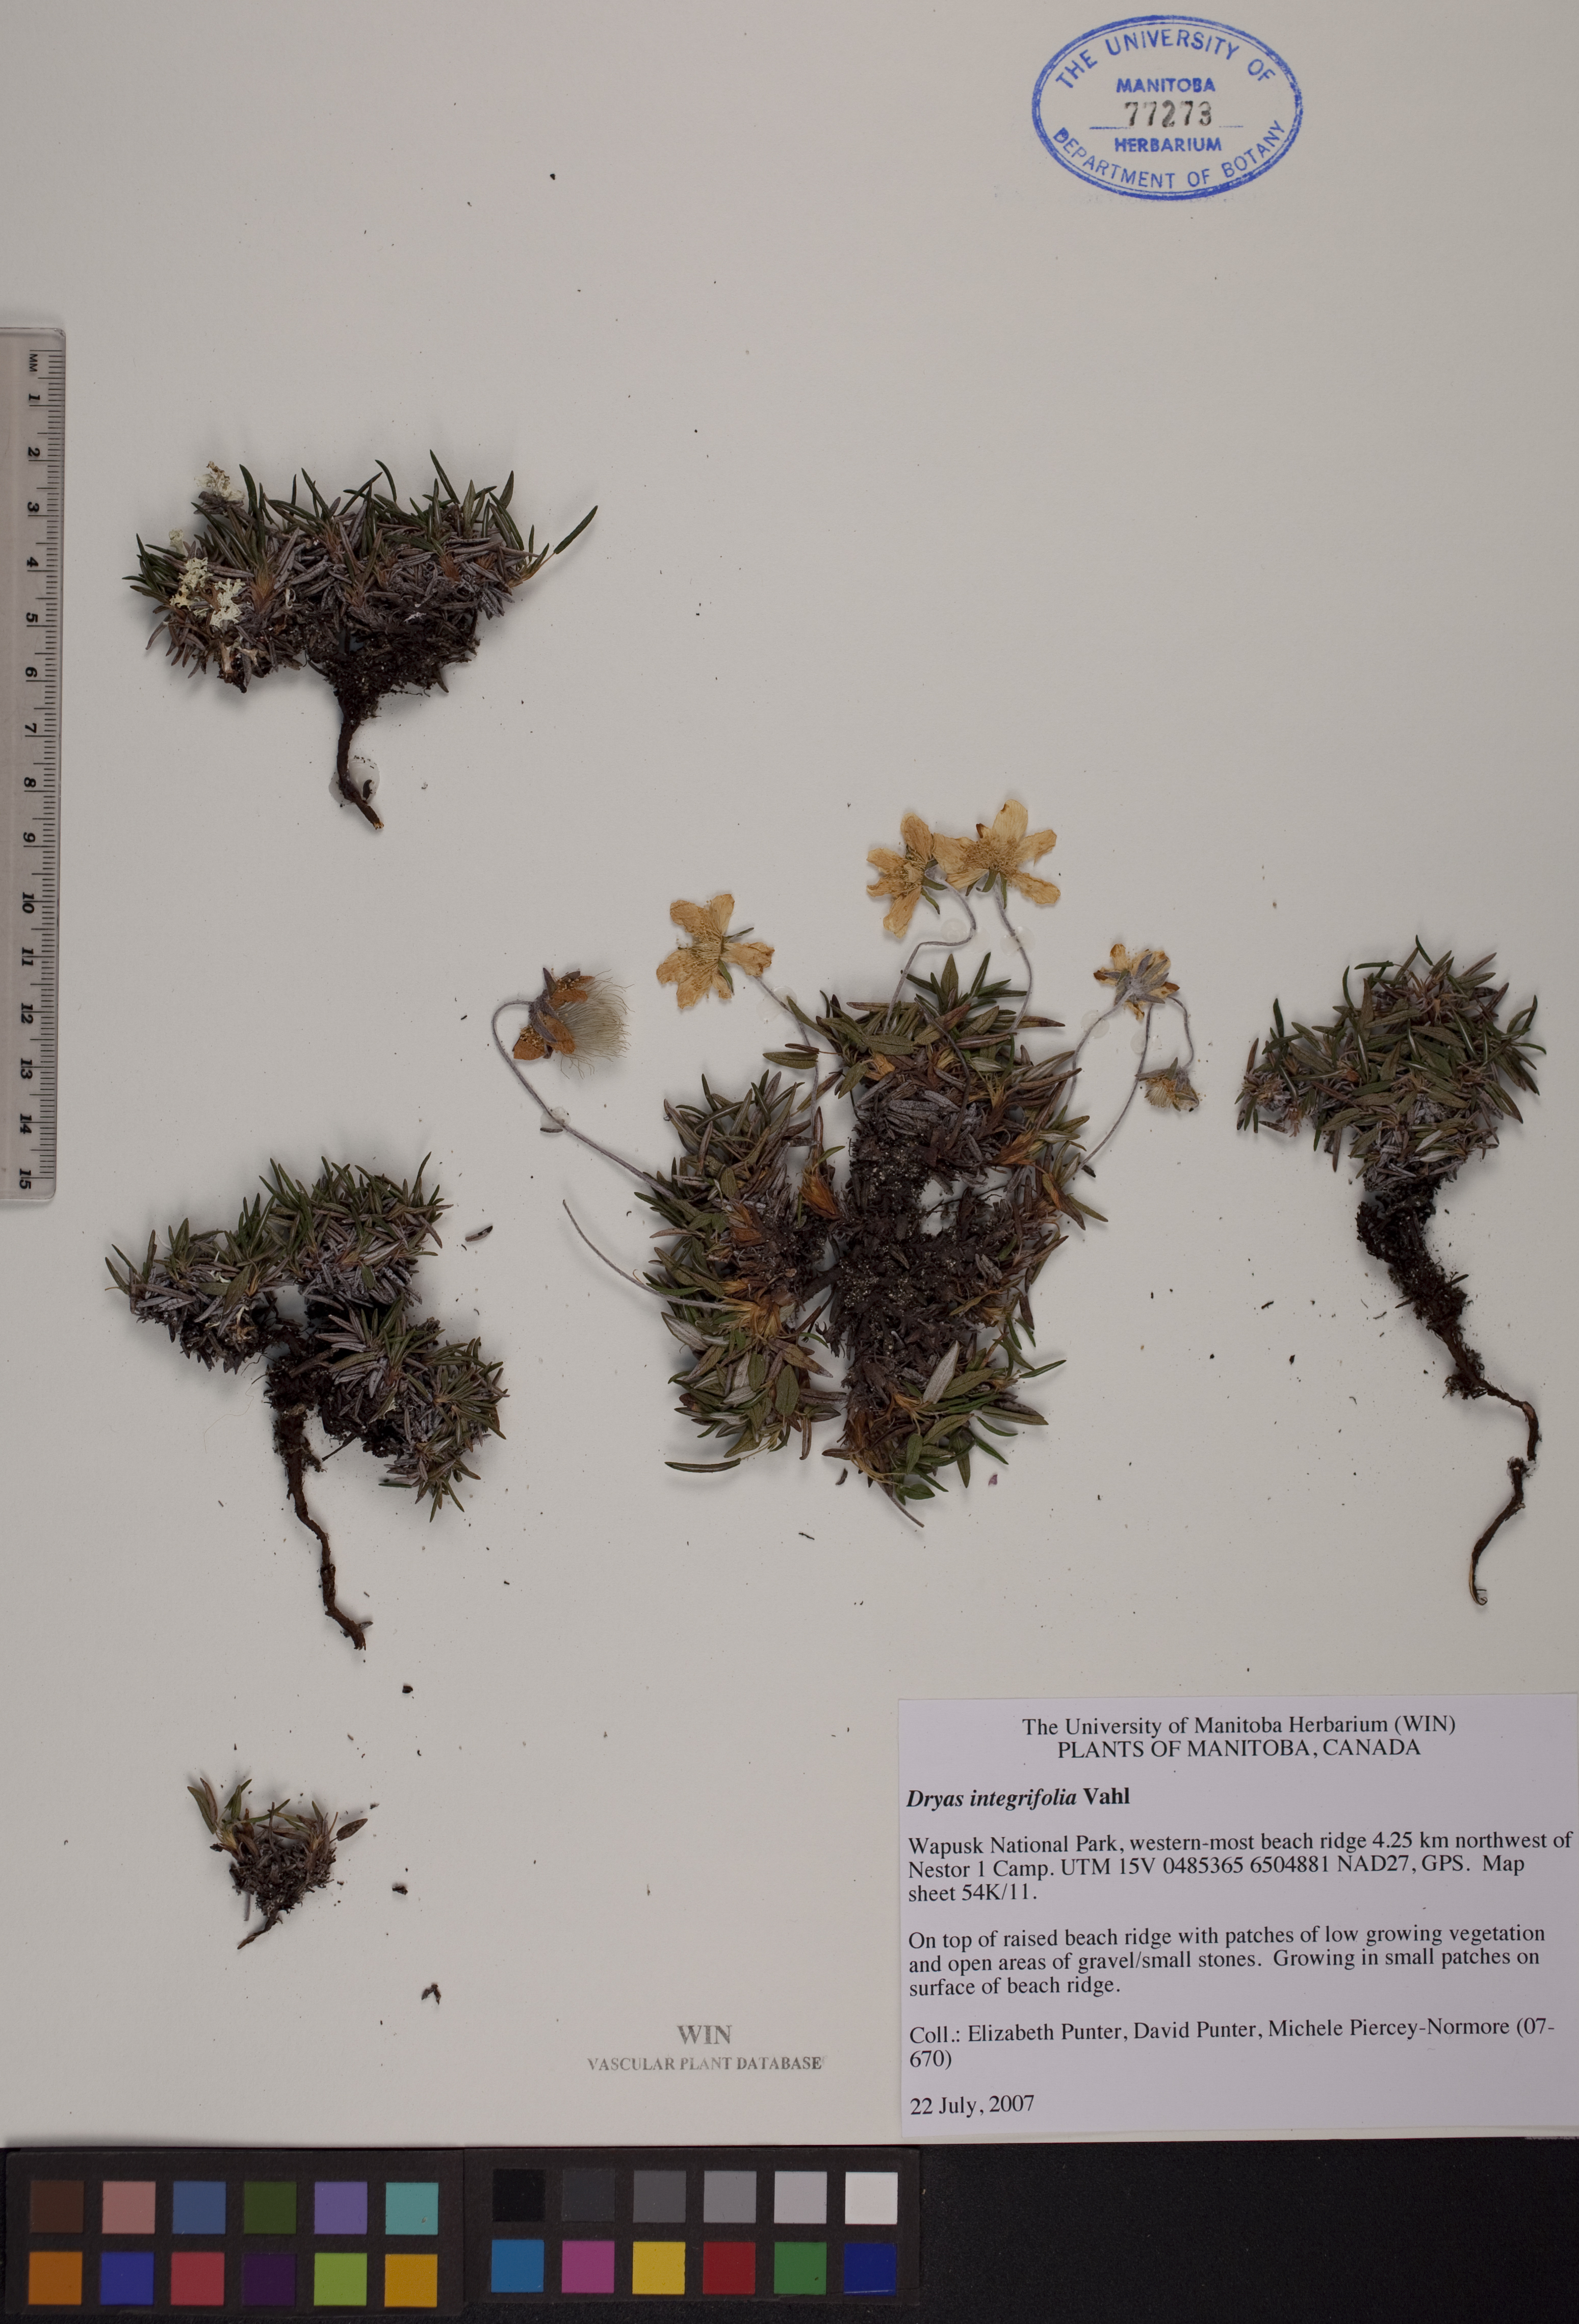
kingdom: Plantae
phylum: Tracheophyta
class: Magnoliopsida
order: Rosales
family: Rosaceae
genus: Dryas
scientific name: Dryas integrifolia
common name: Entire-leaved mountain avens
